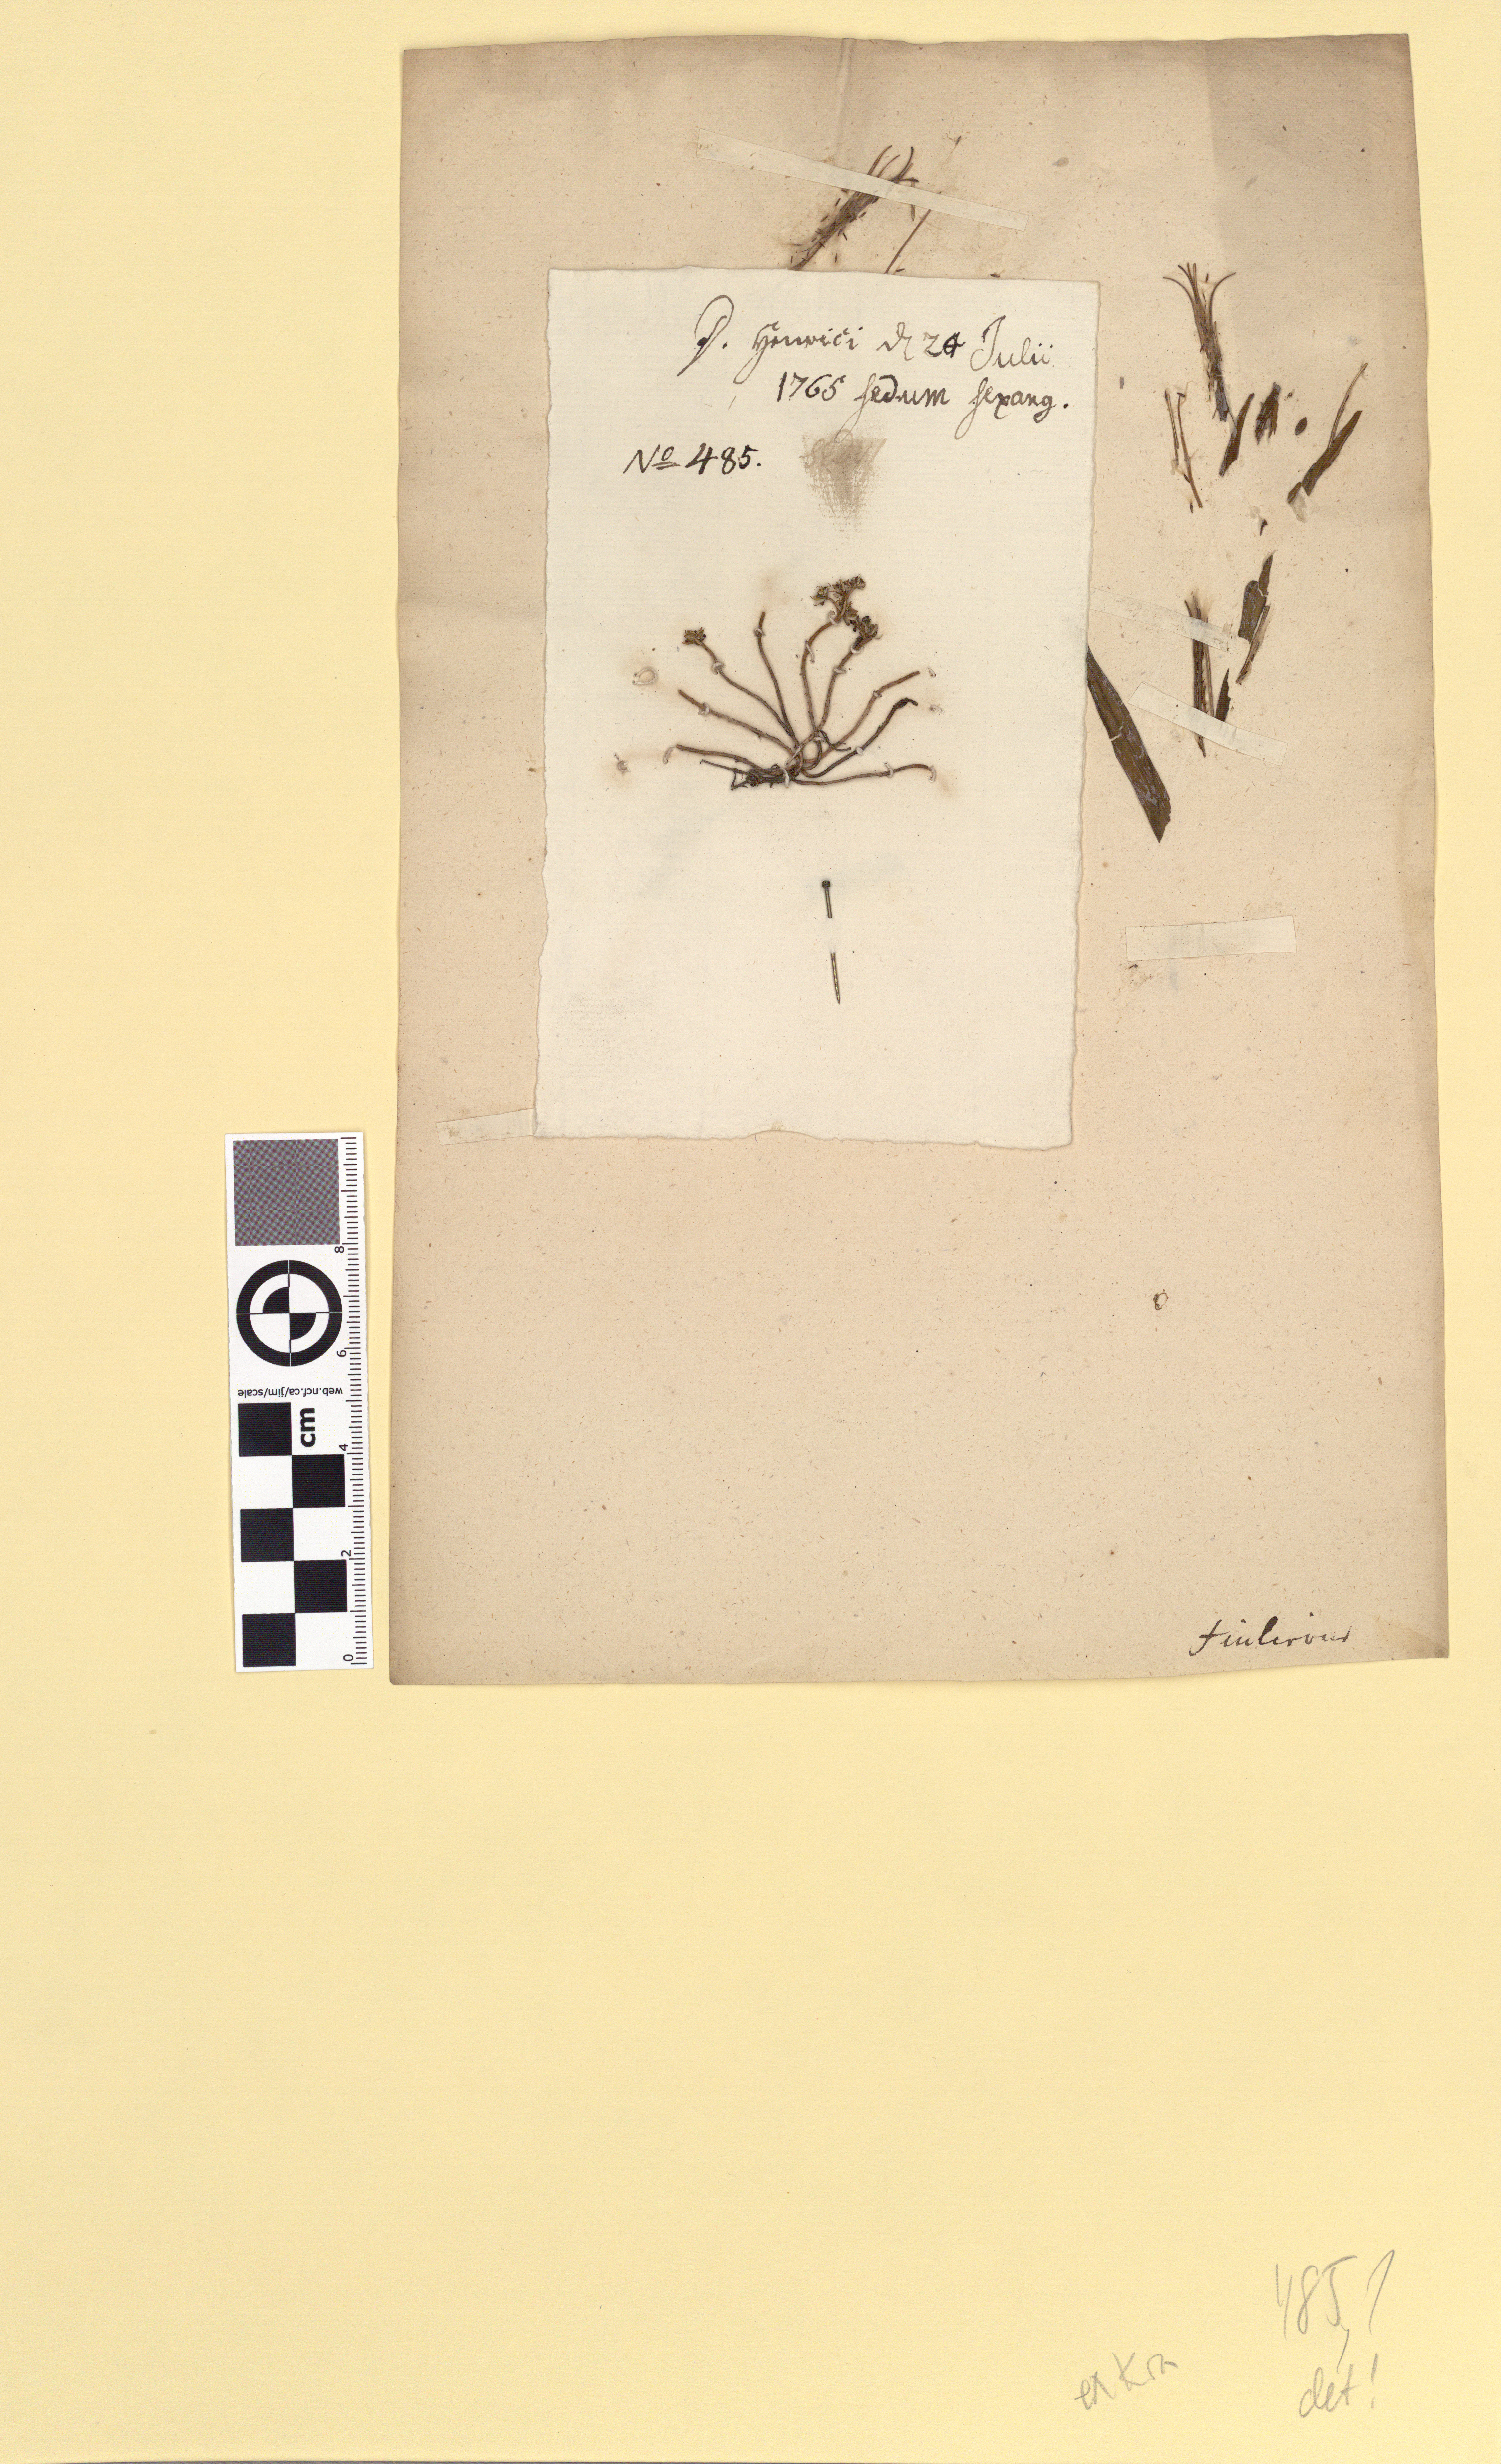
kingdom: Plantae
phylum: Tracheophyta
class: Magnoliopsida
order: Saxifragales
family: Crassulaceae
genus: Sedum
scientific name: Sedum annuum
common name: Annual stonecrop
